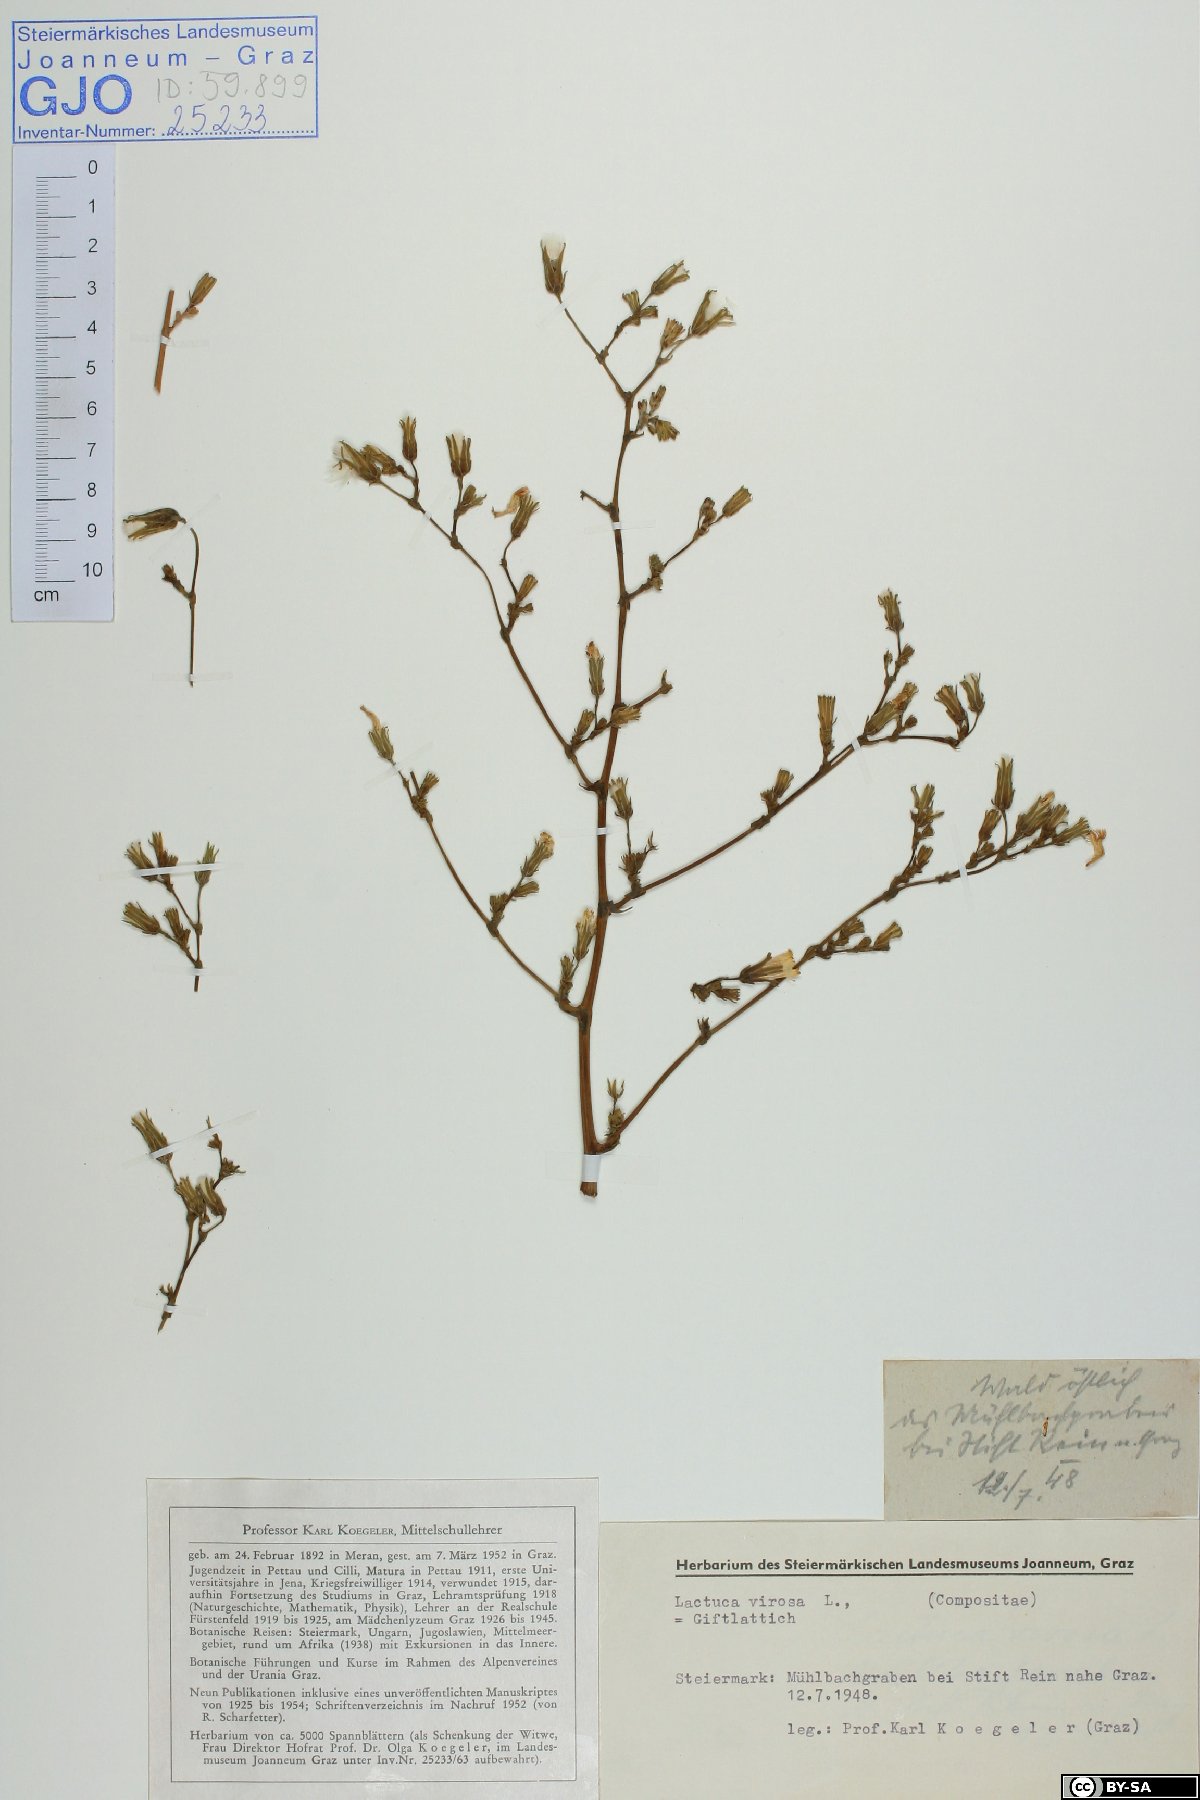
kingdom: Plantae
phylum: Tracheophyta
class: Magnoliopsida
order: Asterales
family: Asteraceae
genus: Lactuca
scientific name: Lactuca virosa
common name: Great lettuce
